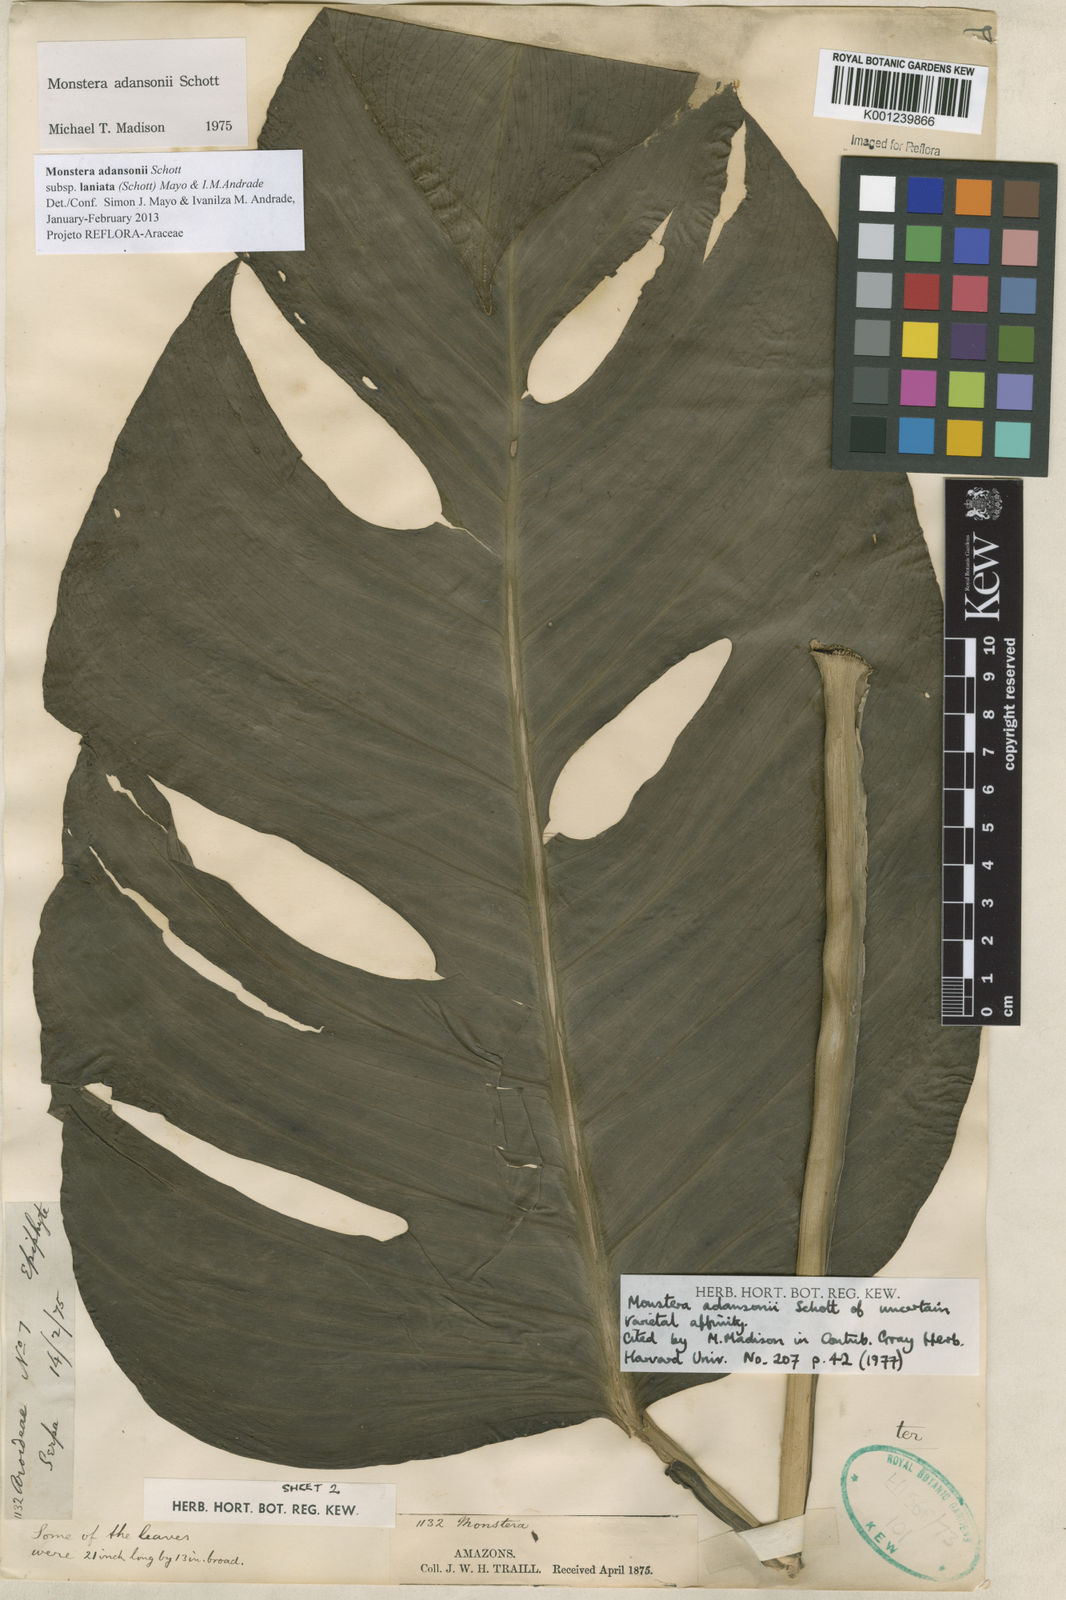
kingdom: Plantae
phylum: Tracheophyta
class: Liliopsida
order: Alismatales
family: Araceae
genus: Monstera
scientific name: Monstera adansonii
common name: Tarovine
